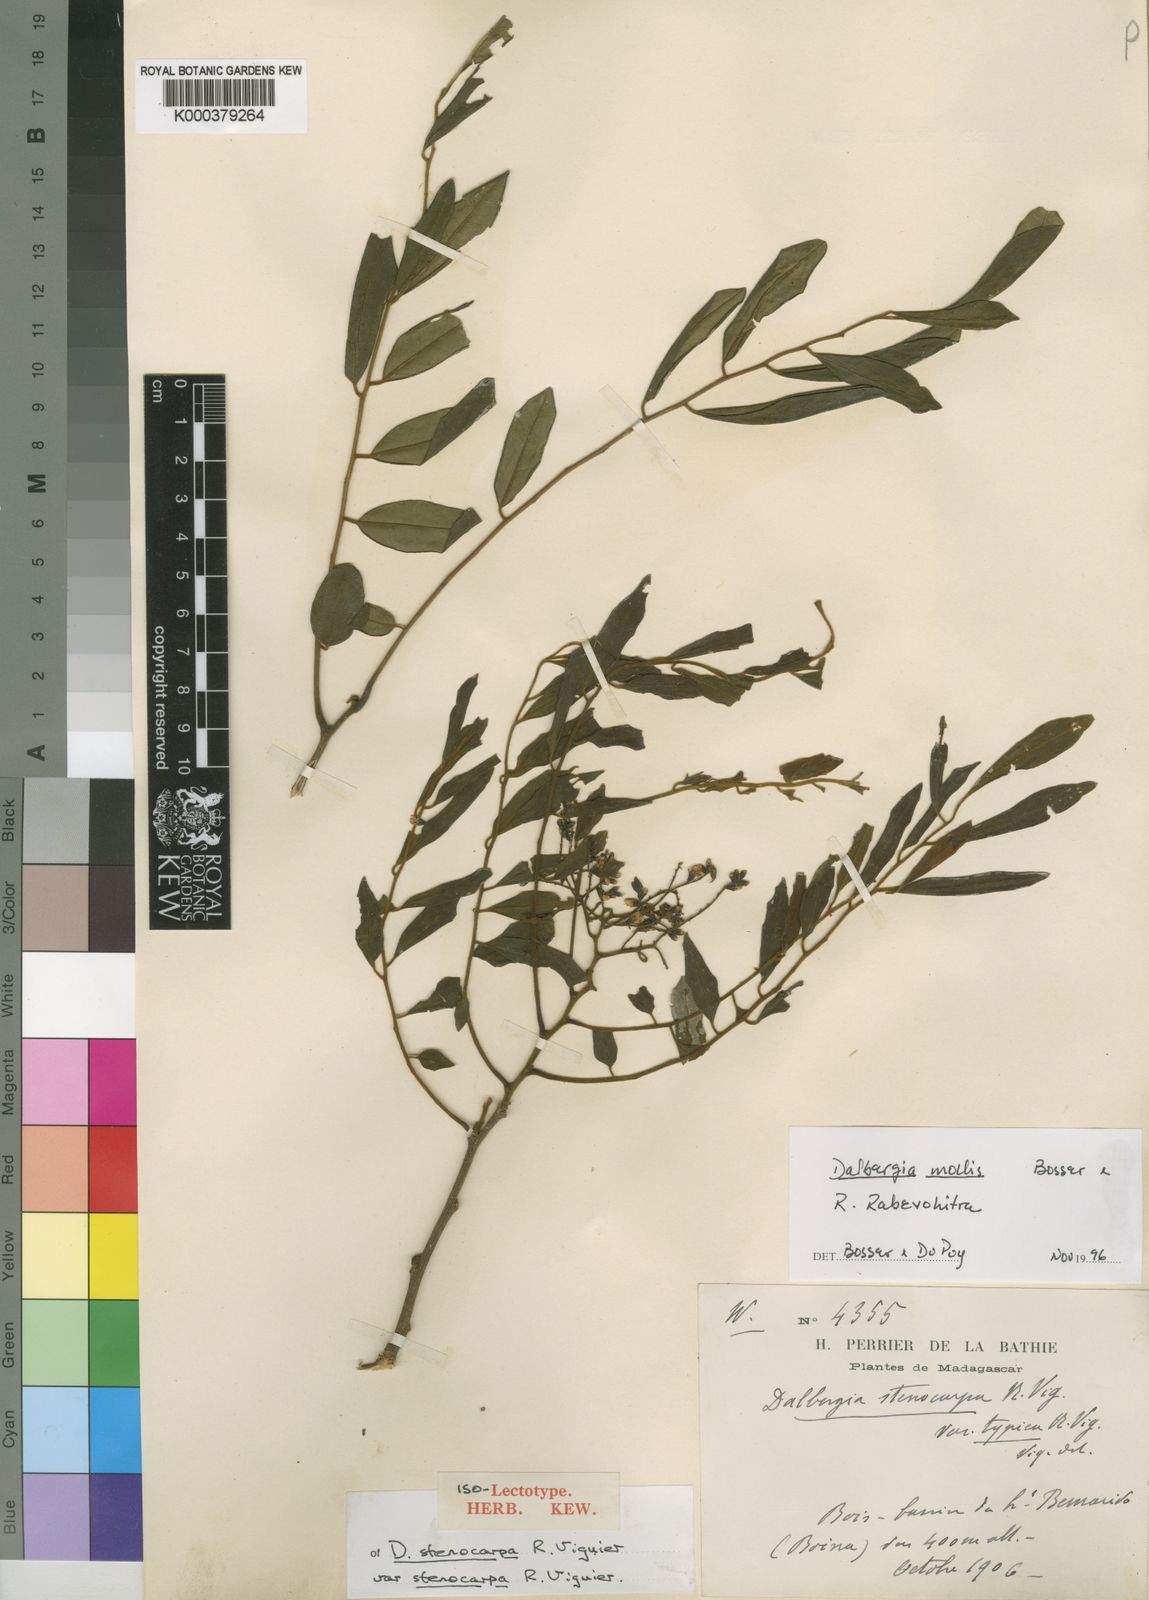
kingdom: Plantae
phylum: Tracheophyta
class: Magnoliopsida
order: Fabales
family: Fabaceae
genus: Dalbergia
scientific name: Dalbergia bemarivensis
